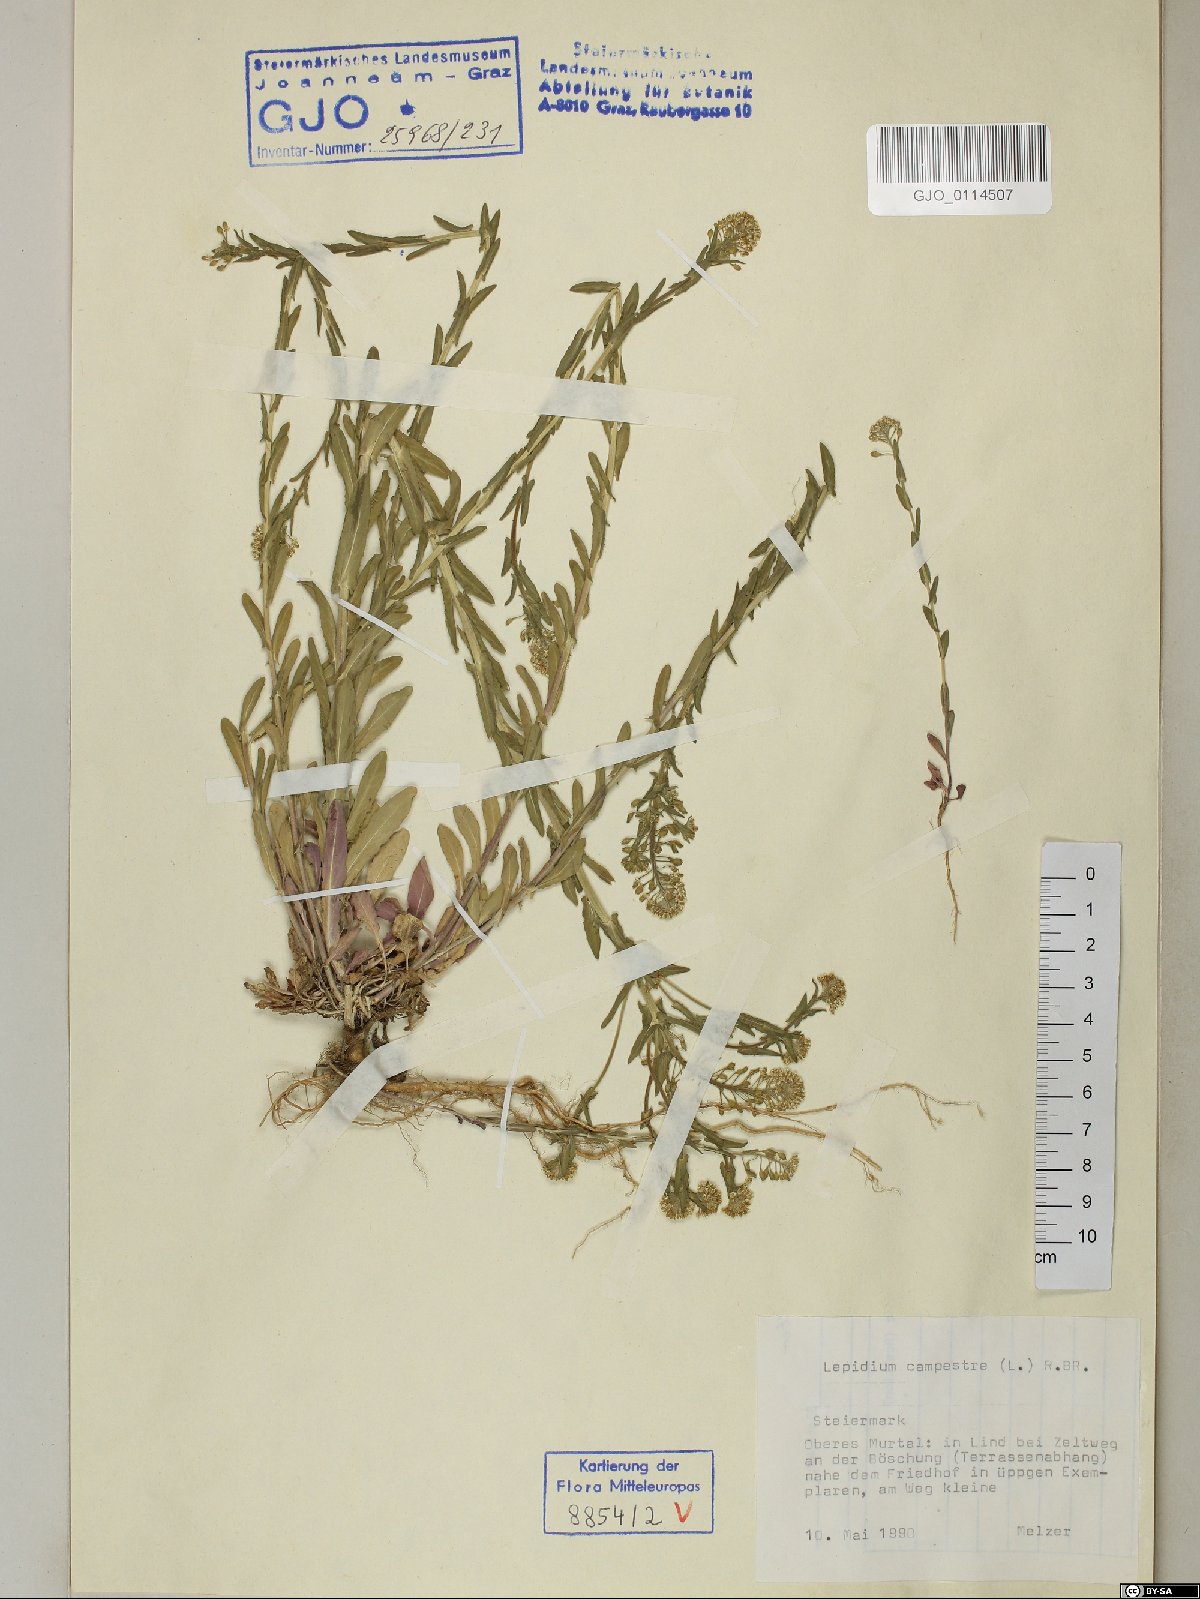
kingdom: Plantae
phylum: Tracheophyta
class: Magnoliopsida
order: Brassicales
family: Brassicaceae
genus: Lepidium
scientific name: Lepidium campestre
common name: Field pepperwort
